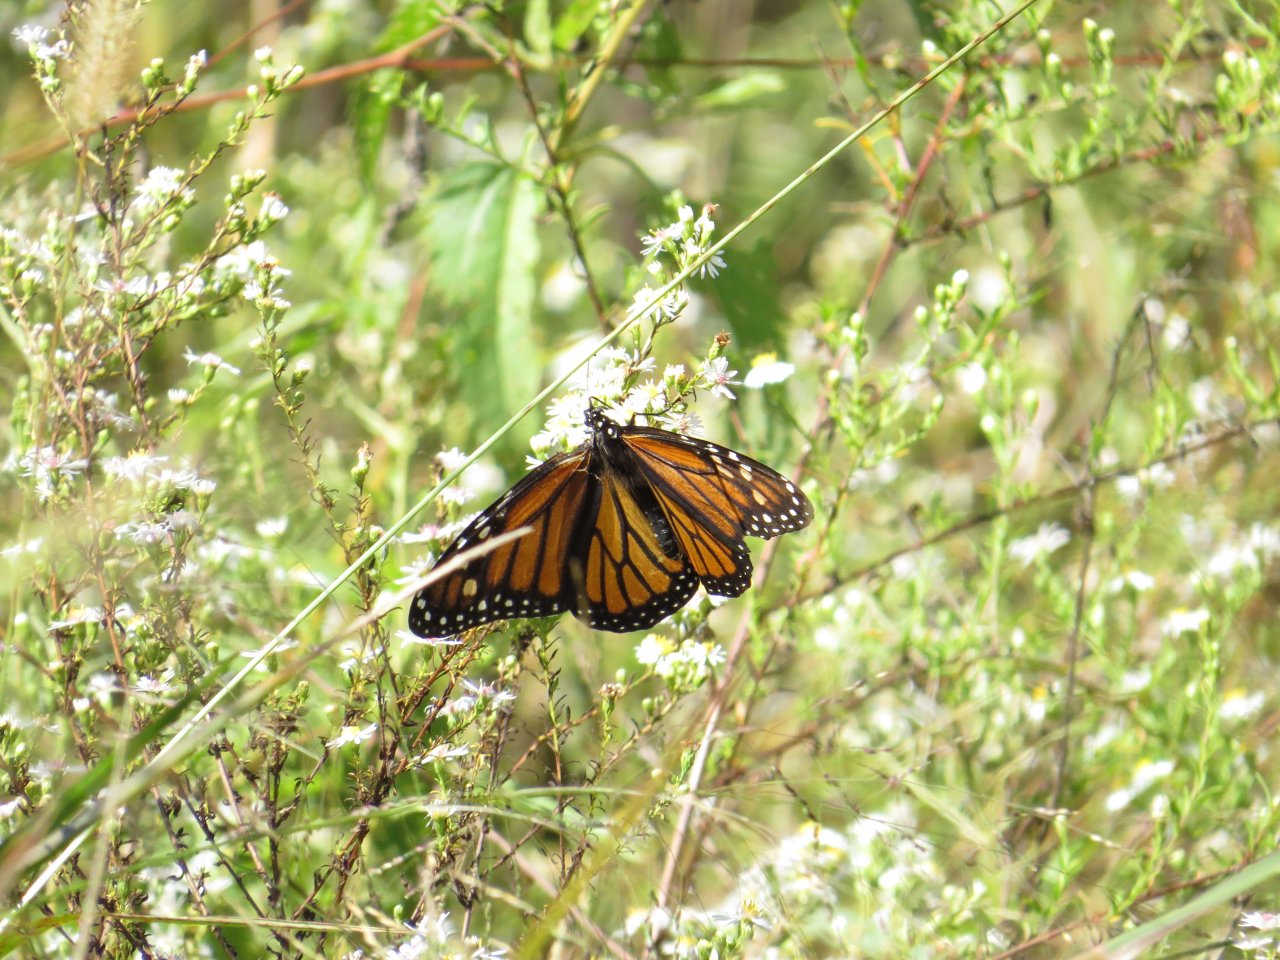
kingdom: Animalia
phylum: Arthropoda
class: Insecta
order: Lepidoptera
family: Nymphalidae
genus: Danaus
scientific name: Danaus plexippus
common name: Monarch
